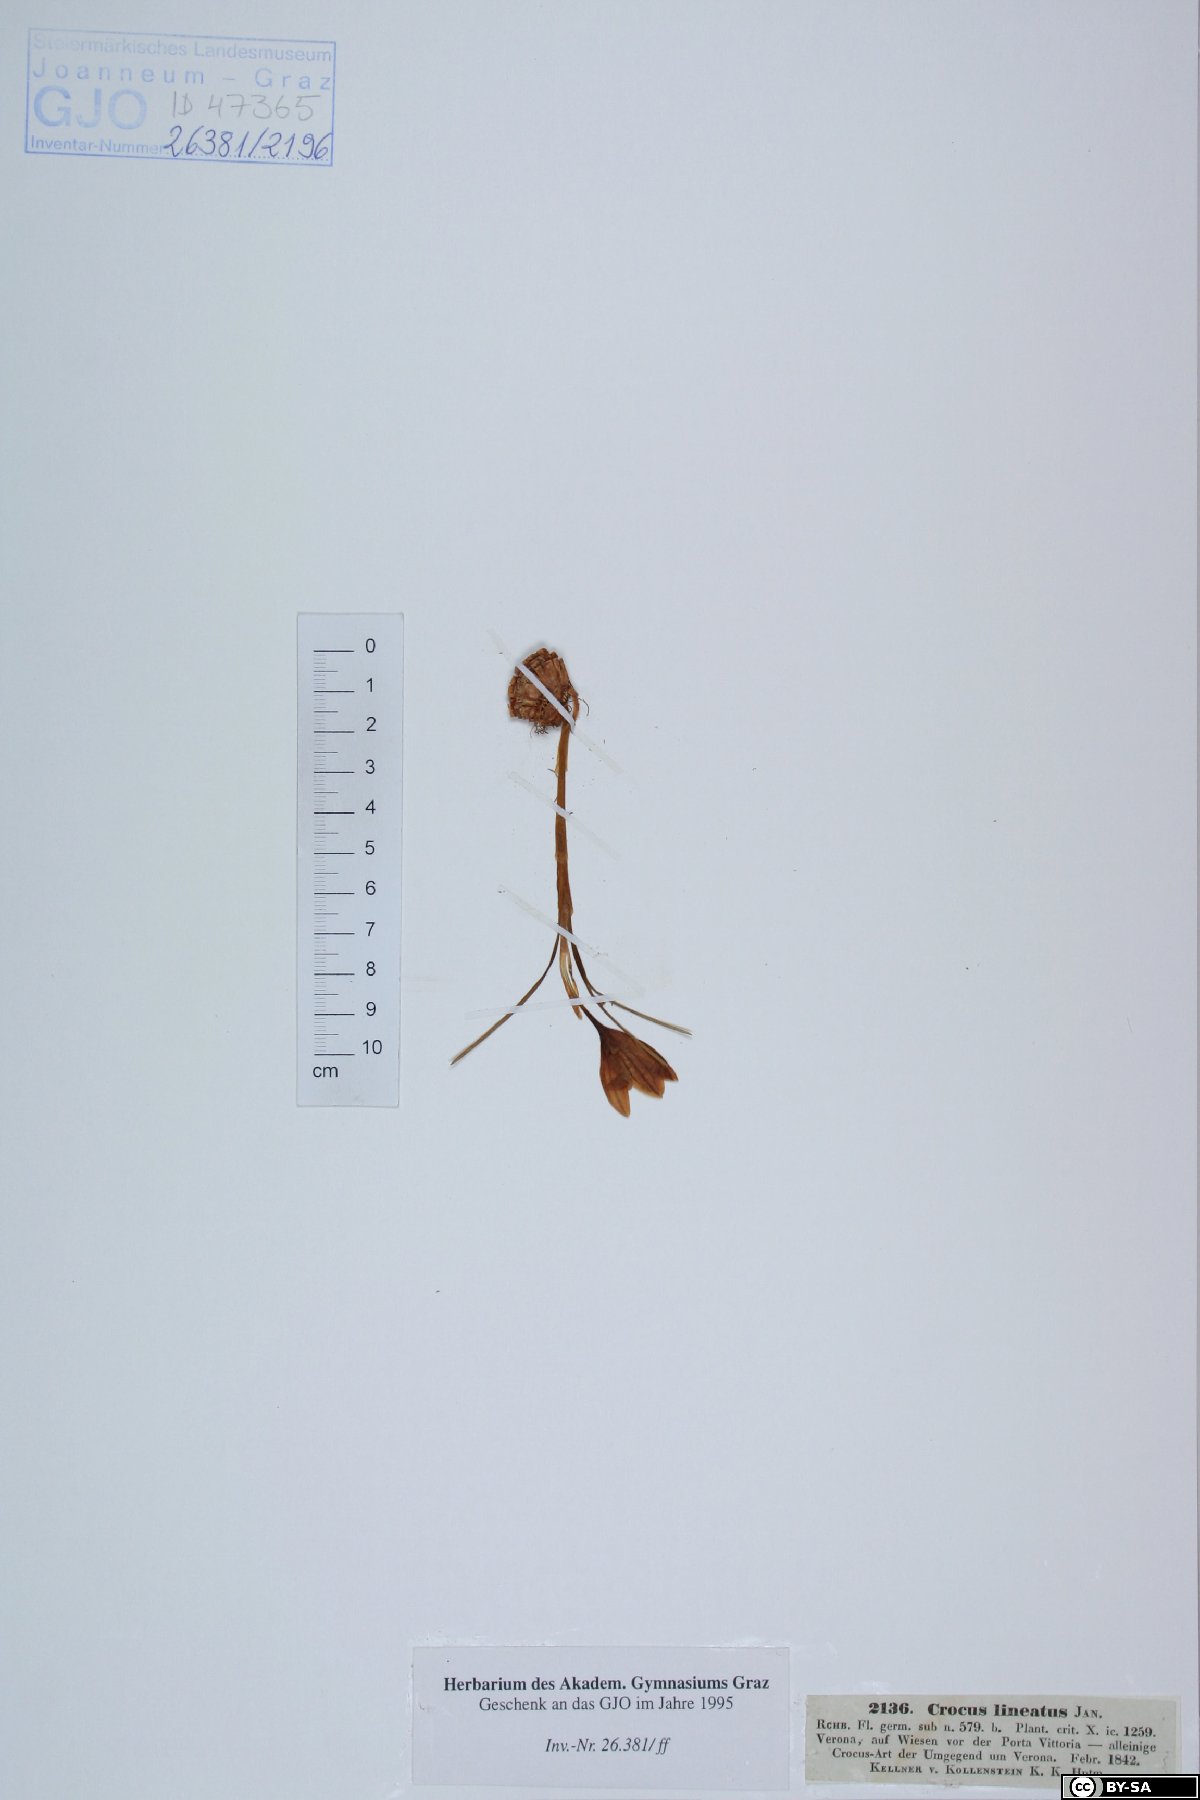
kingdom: Plantae
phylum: Tracheophyta
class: Liliopsida
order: Asparagales
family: Iridaceae
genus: Crocus
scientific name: Crocus biflorus
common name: Silvery crocus
